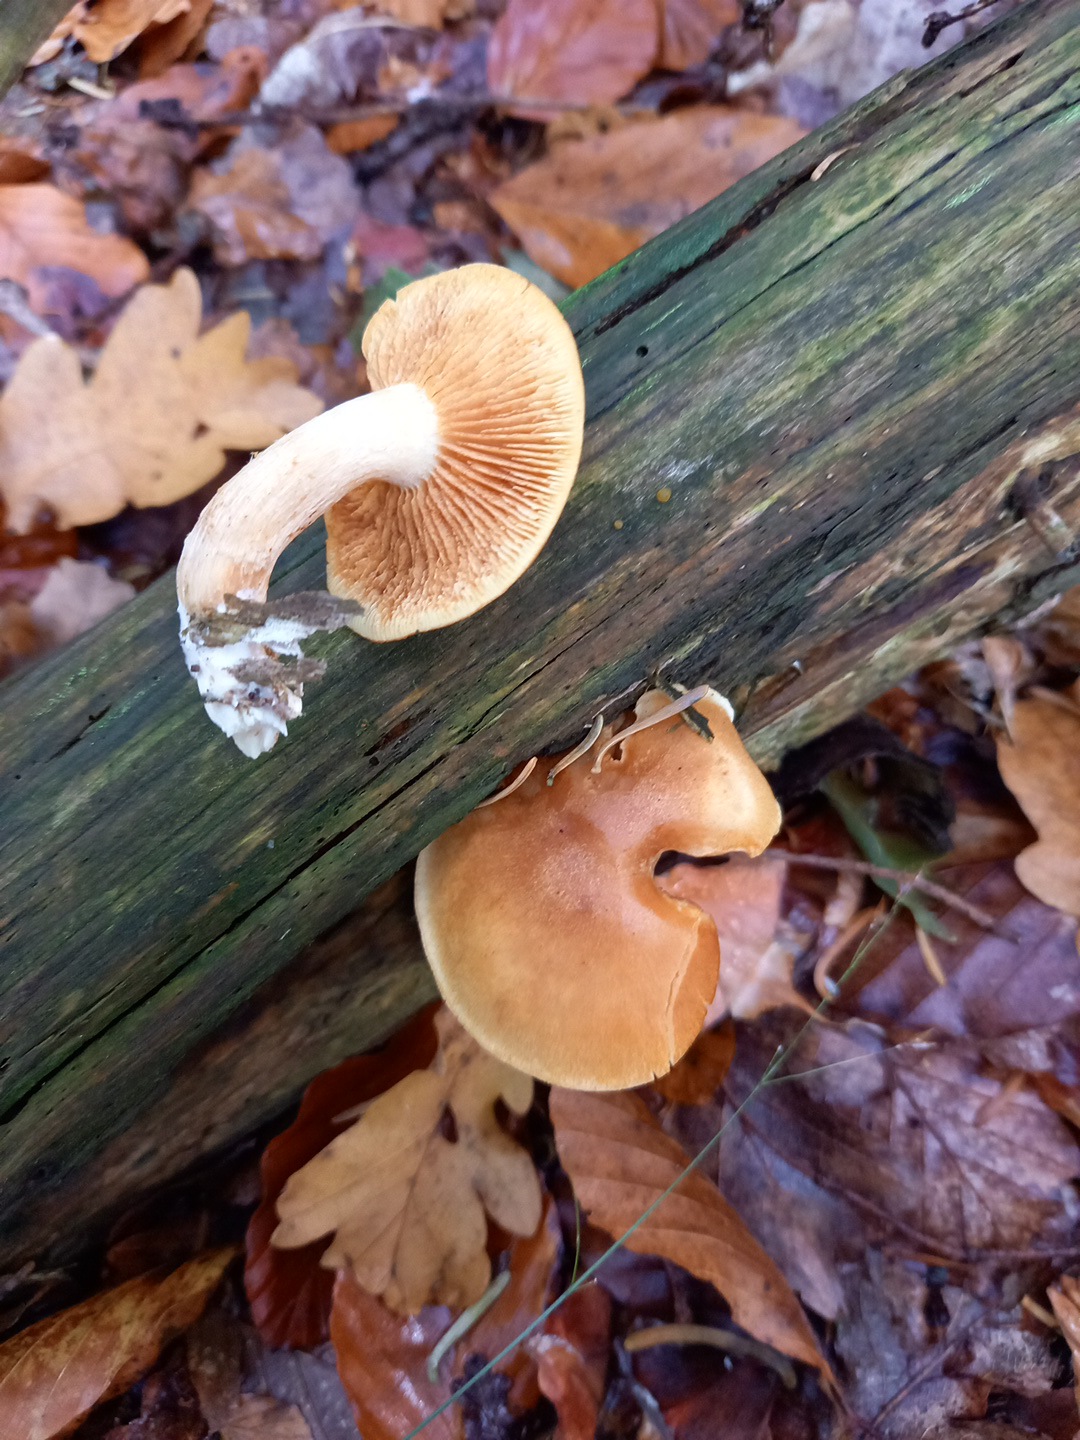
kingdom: Fungi
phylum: Basidiomycota
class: Agaricomycetes
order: Agaricales
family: Hymenogastraceae
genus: Gymnopilus
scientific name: Gymnopilus penetrans
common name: plettet flammehat
